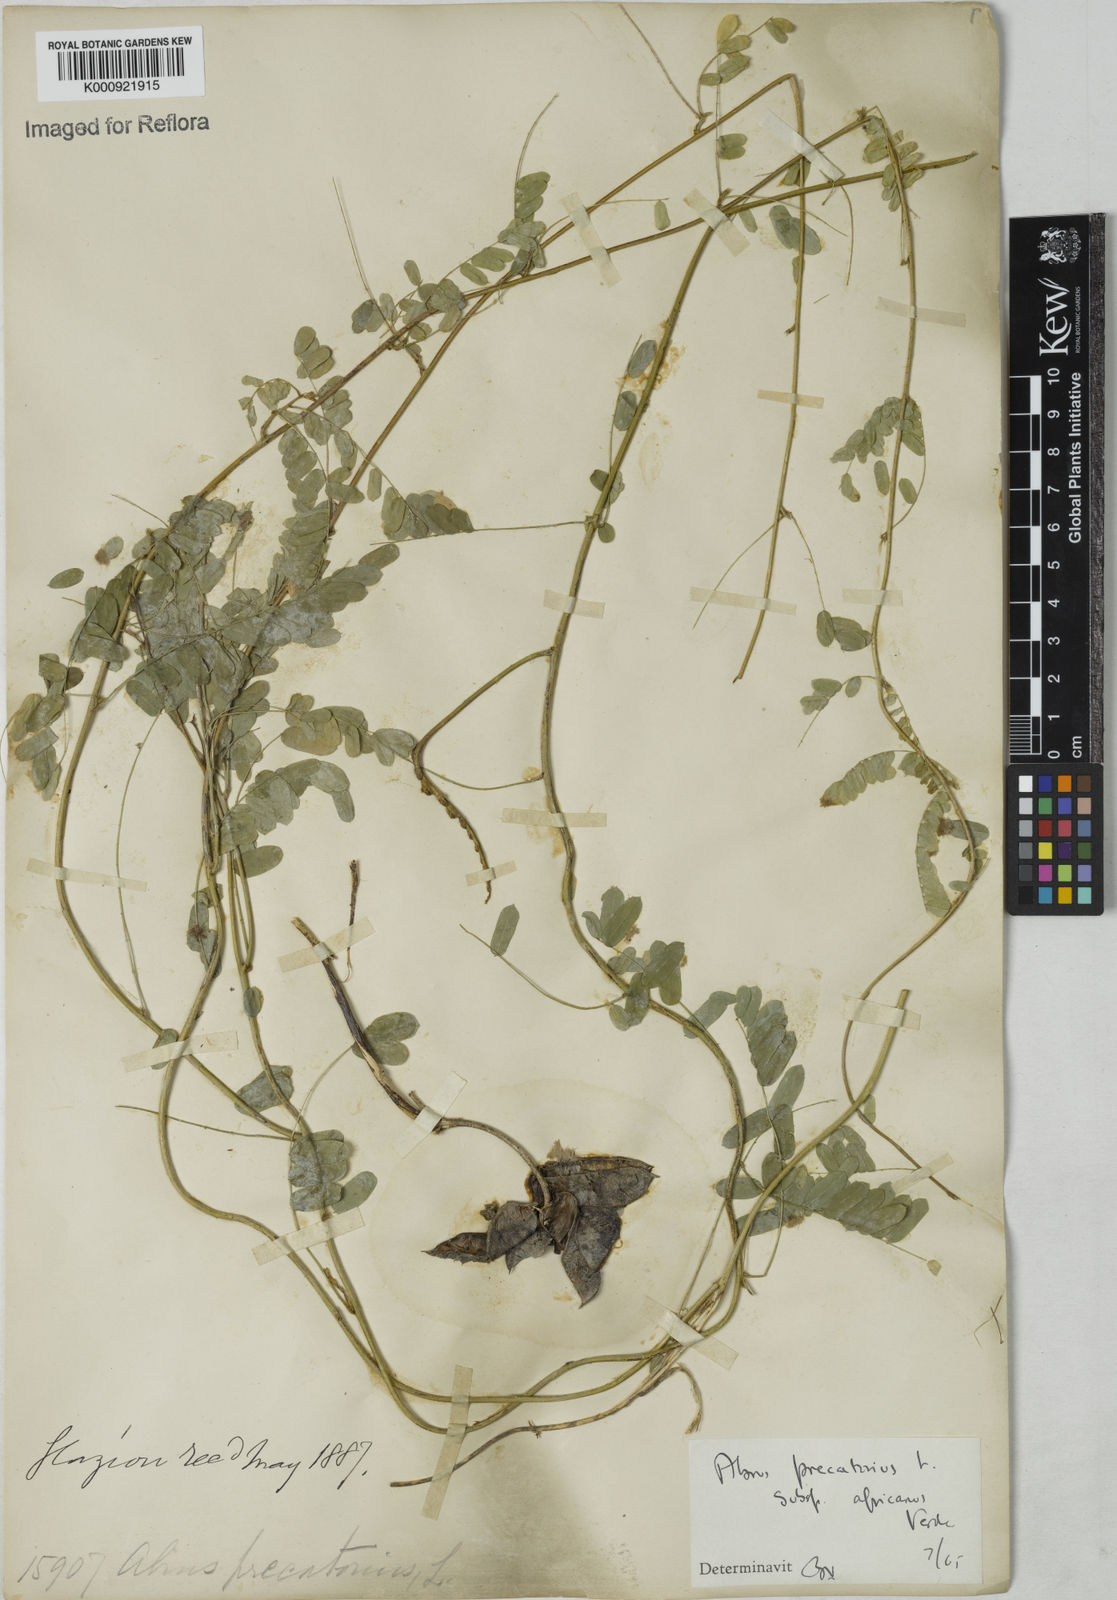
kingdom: Plantae
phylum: Tracheophyta
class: Magnoliopsida
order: Fabales
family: Fabaceae
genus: Abrus
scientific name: Abrus precatorius
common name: Rosarypea
